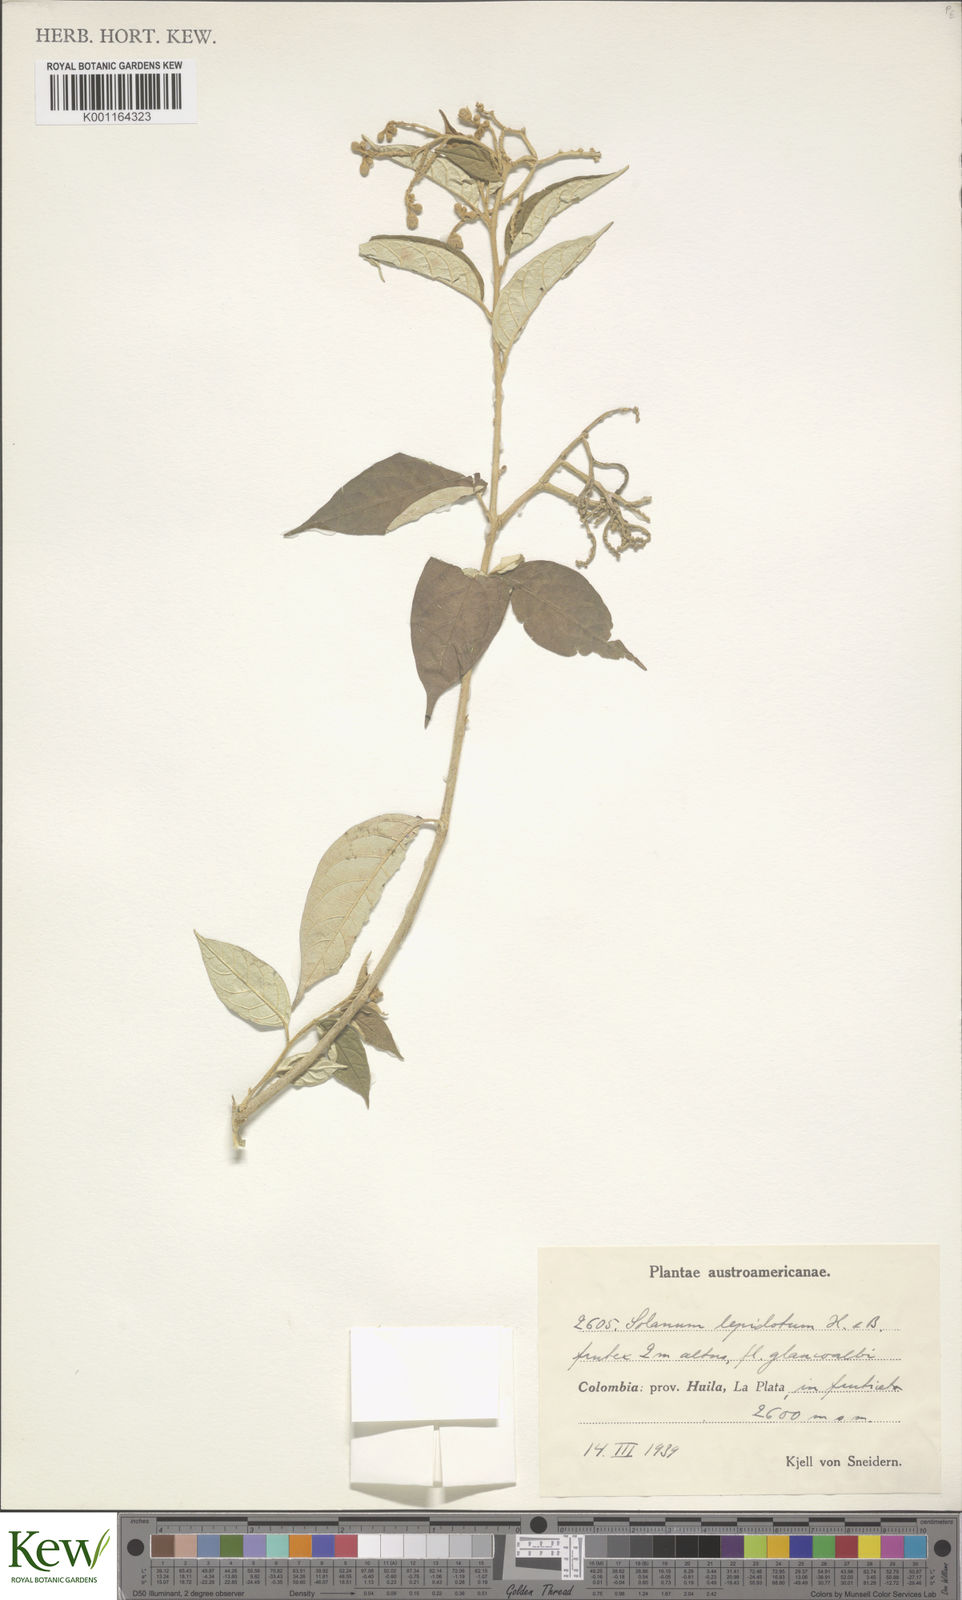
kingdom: Plantae
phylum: Tracheophyta
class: Magnoliopsida
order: Solanales
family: Solanaceae
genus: Solanum
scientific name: Solanum lepidotum
